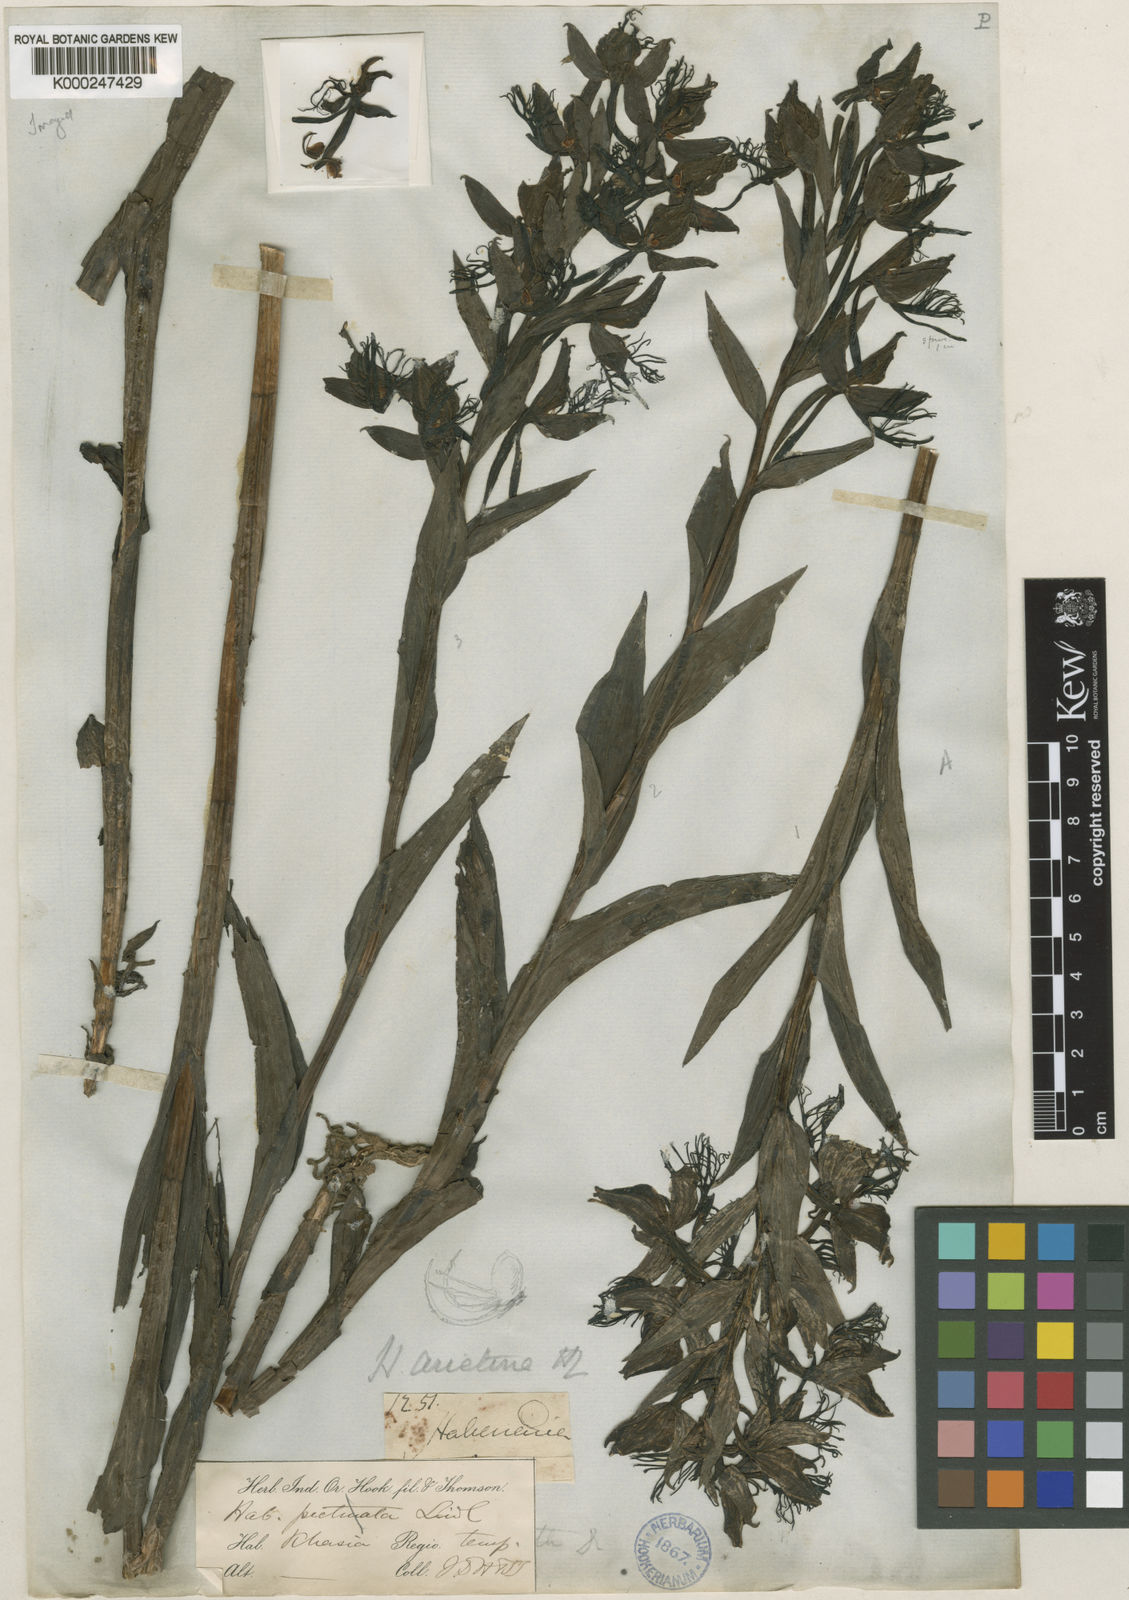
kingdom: Plantae
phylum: Tracheophyta
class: Liliopsida
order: Asparagales
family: Orchidaceae
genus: Habenaria
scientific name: Habenaria pectinata
